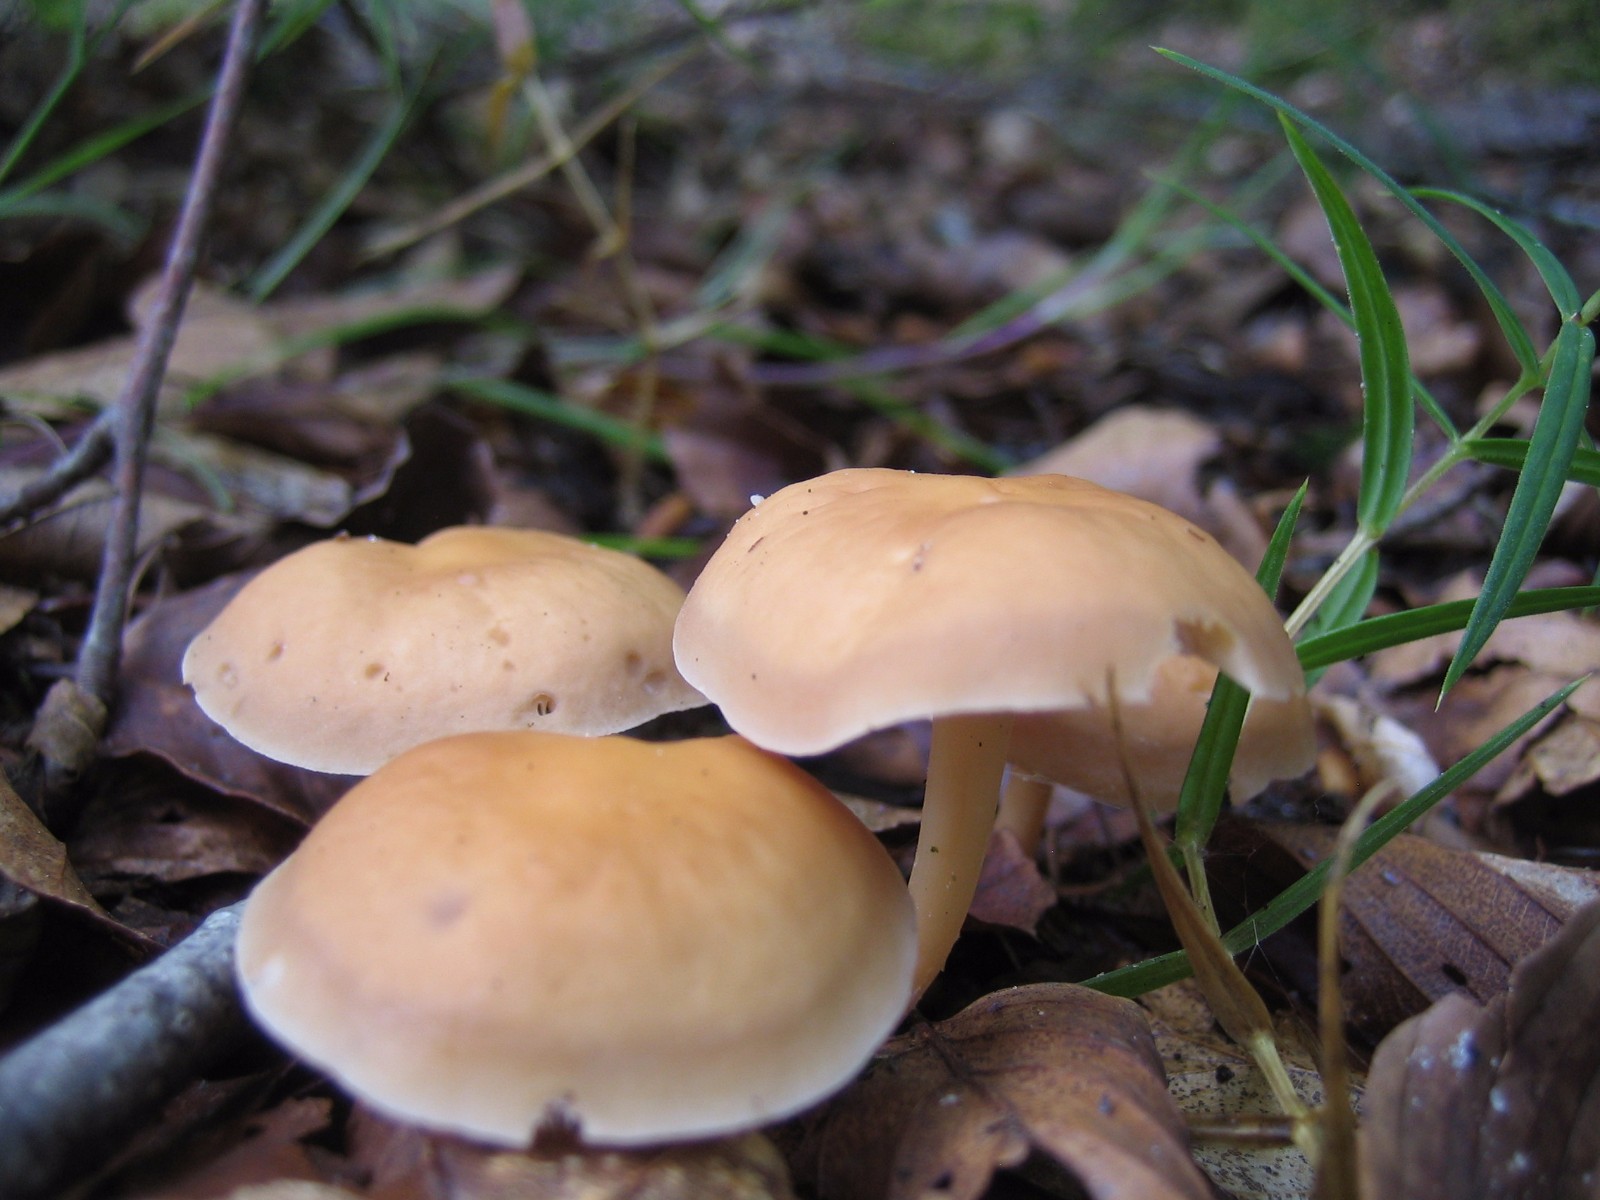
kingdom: Fungi
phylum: Basidiomycota
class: Agaricomycetes
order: Agaricales
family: Omphalotaceae
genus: Gymnopus
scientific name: Gymnopus dryophilus
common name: løv-fladhat
